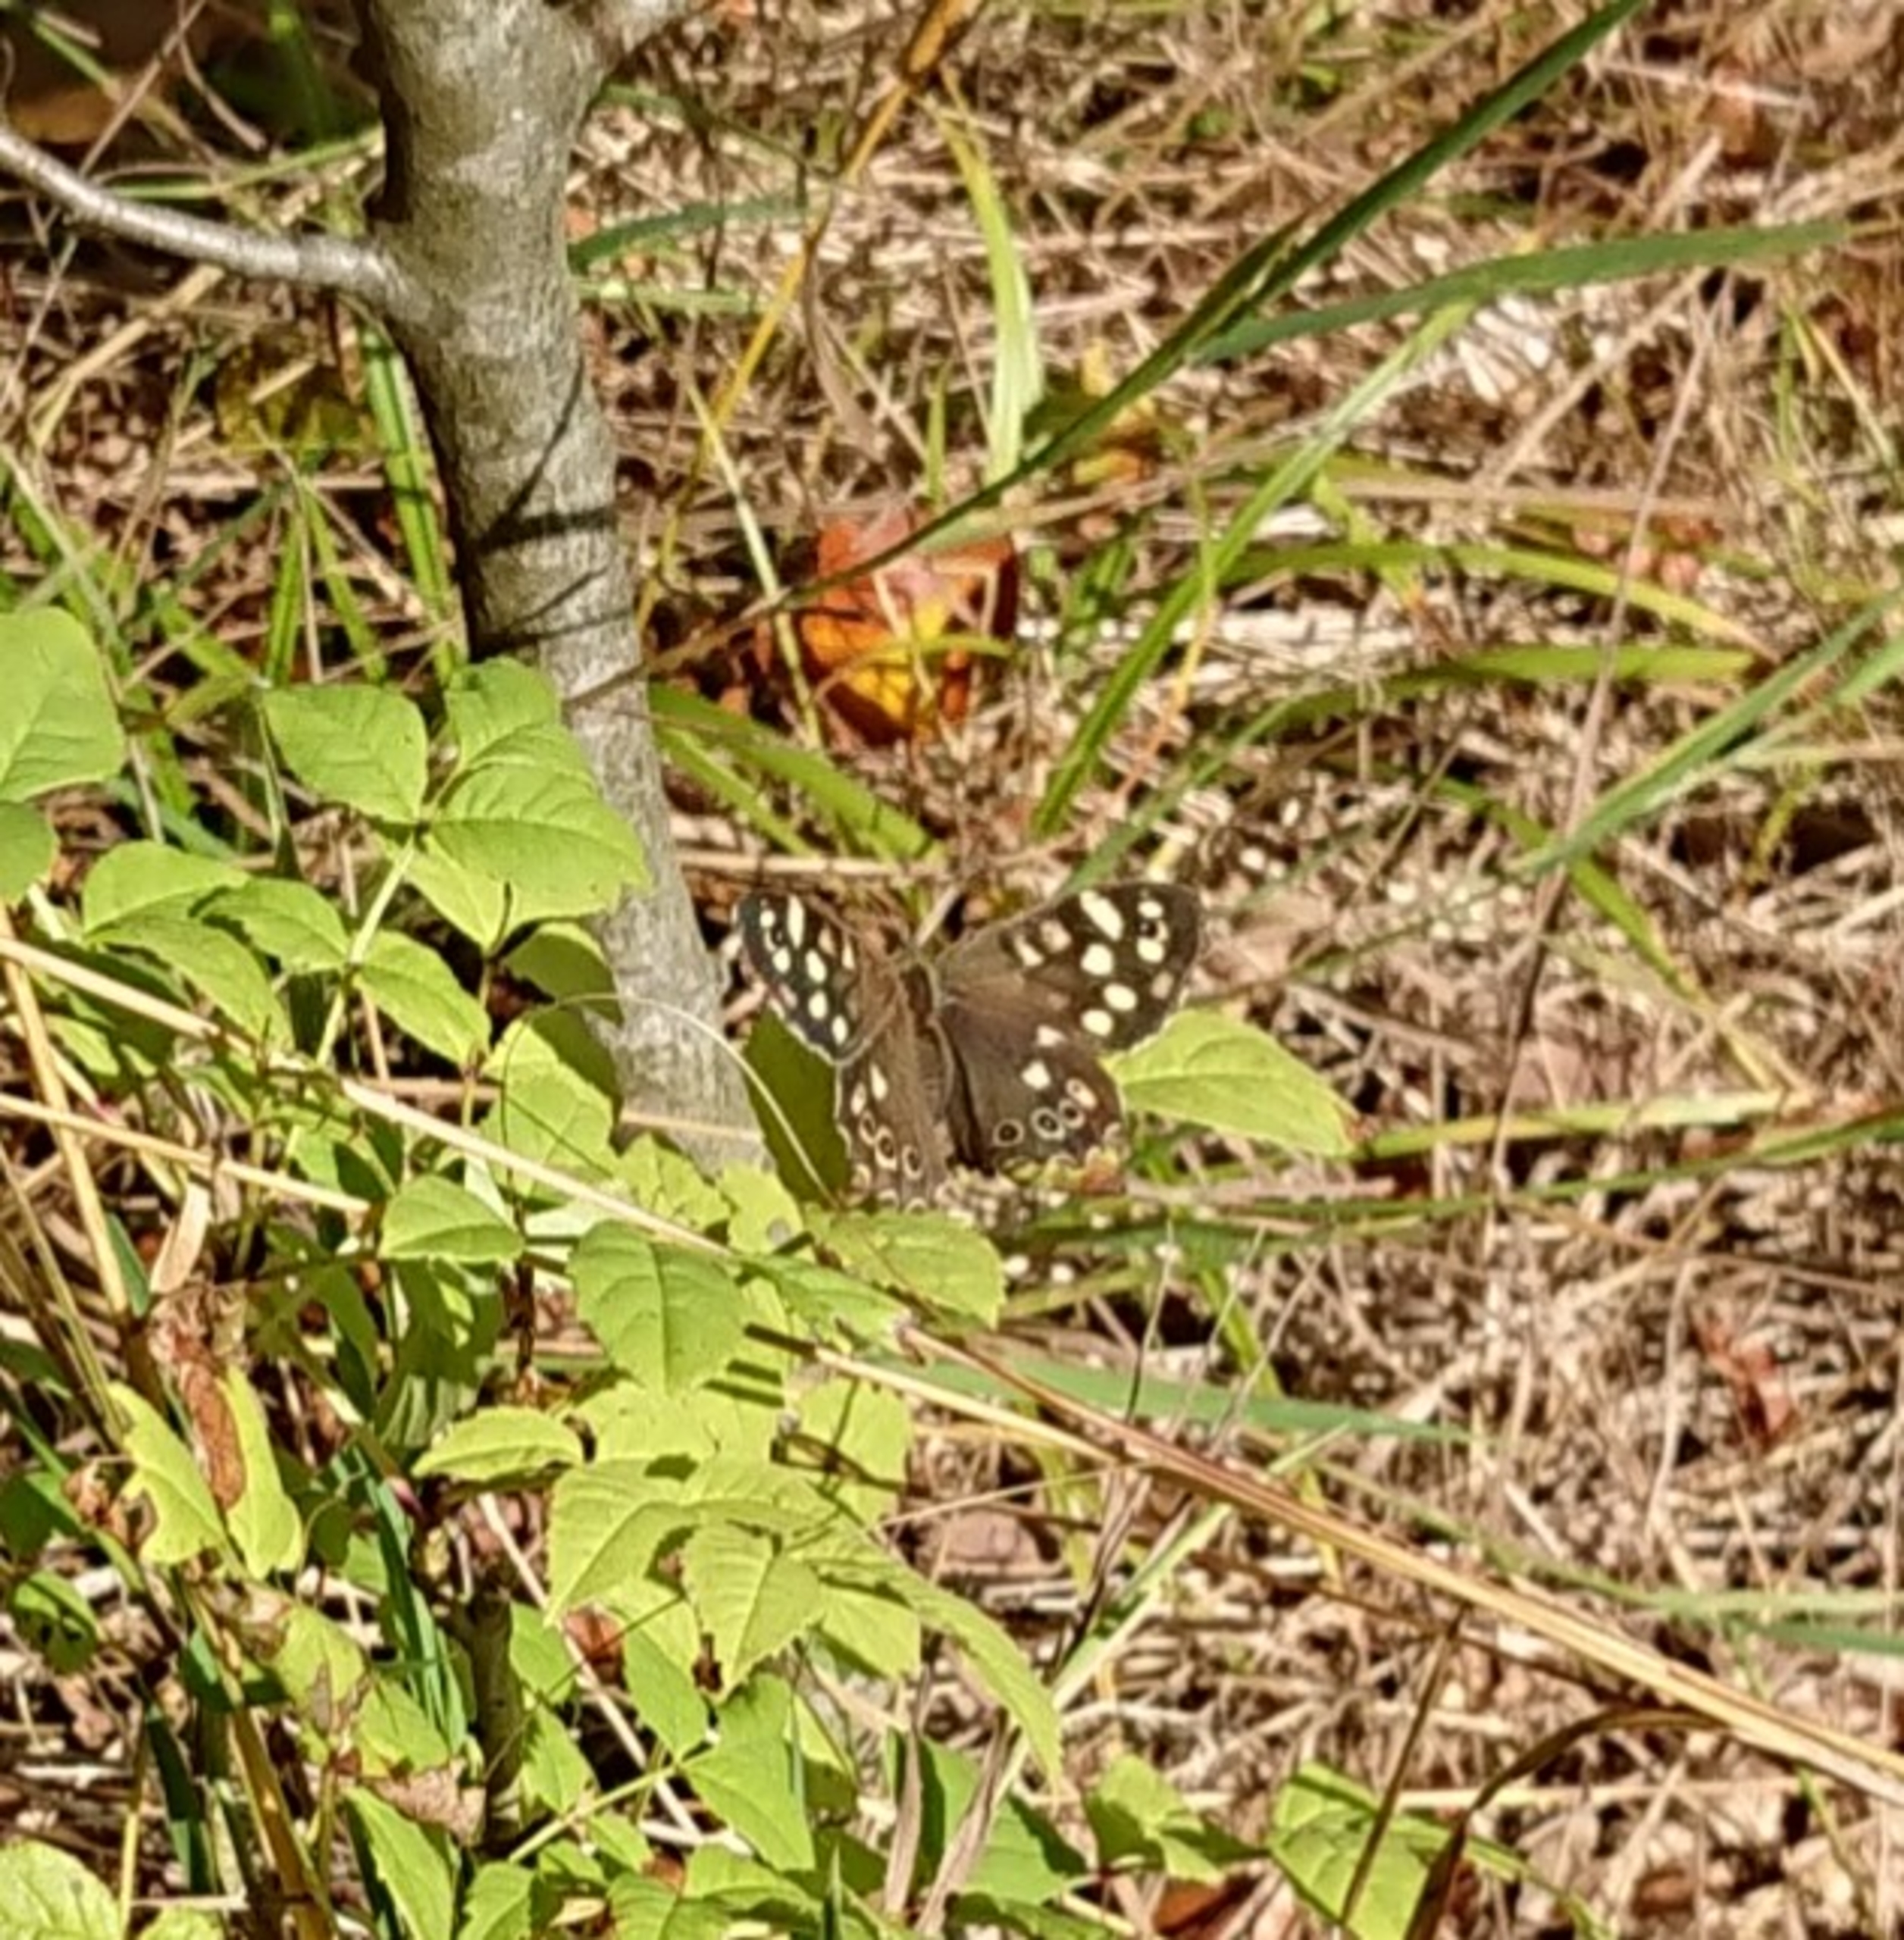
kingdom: Animalia
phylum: Arthropoda
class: Insecta
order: Lepidoptera
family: Nymphalidae
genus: Pararge
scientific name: Pararge aegeria
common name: Skovrandøje
